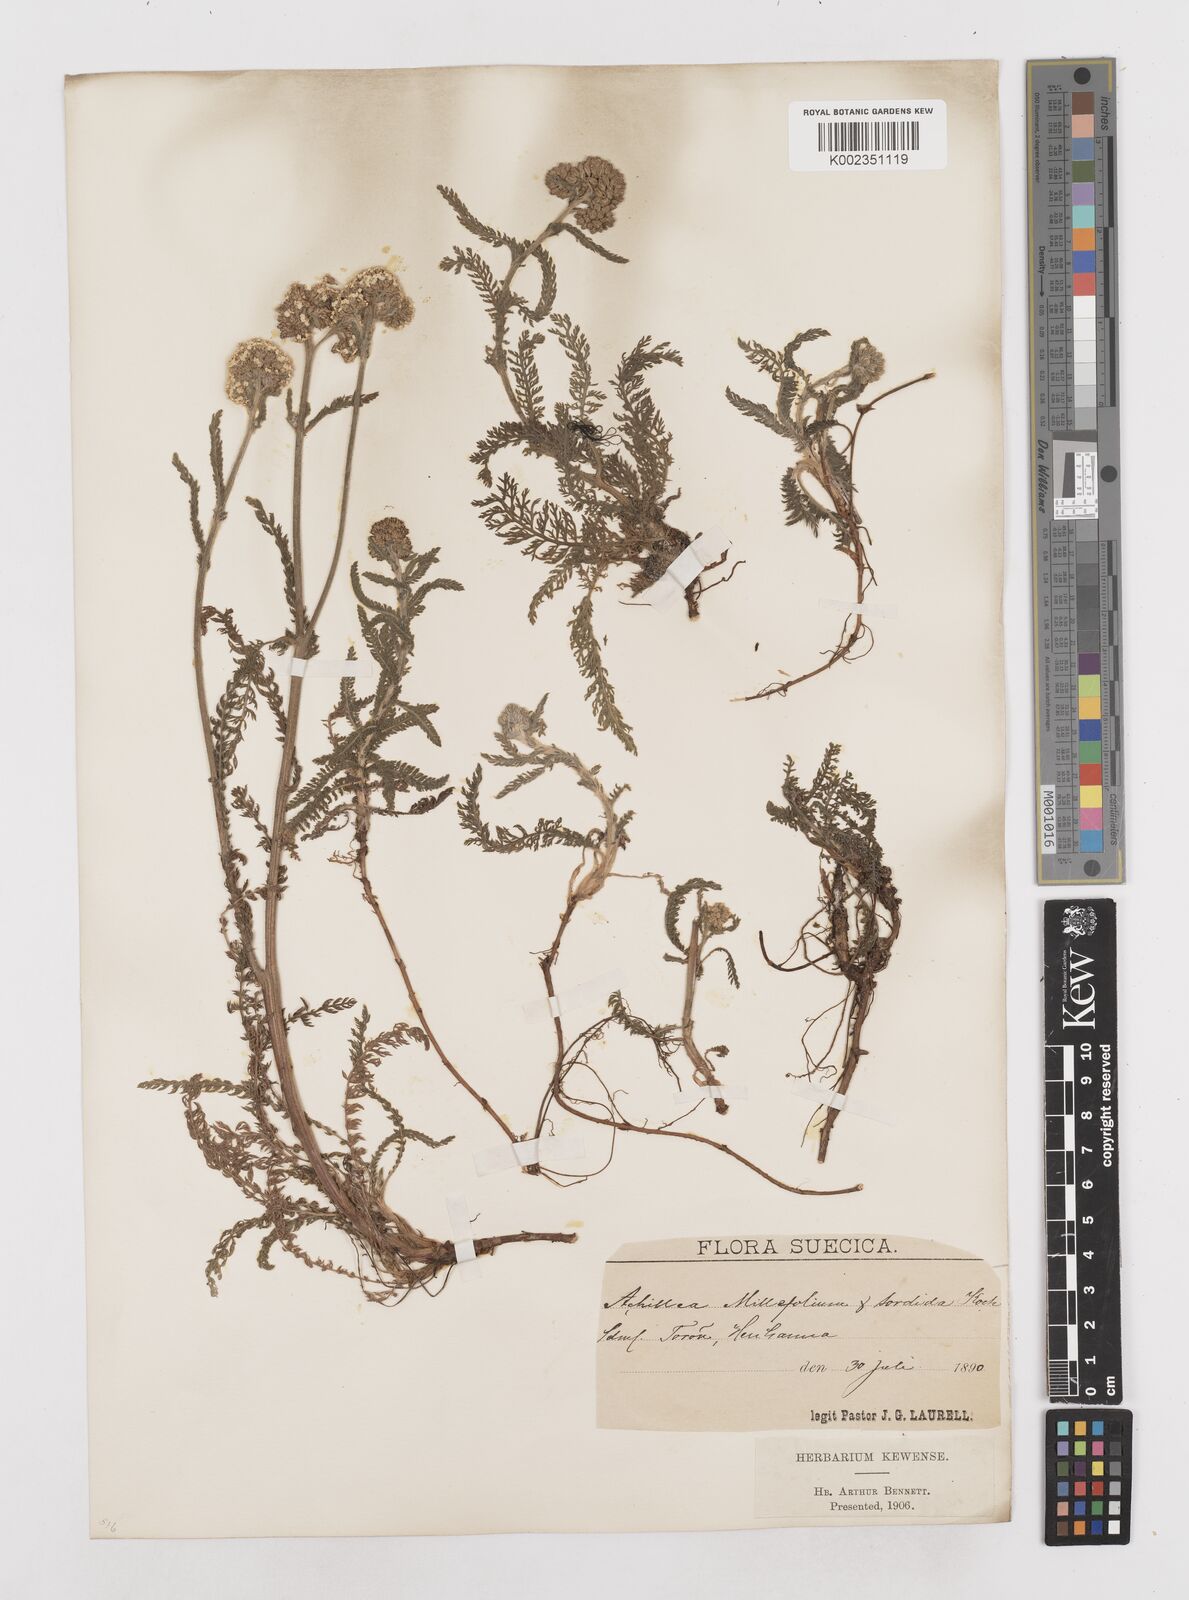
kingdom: Plantae
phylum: Tracheophyta
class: Magnoliopsida
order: Asterales
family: Asteraceae
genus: Achillea
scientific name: Achillea millefolium
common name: Yarrow
